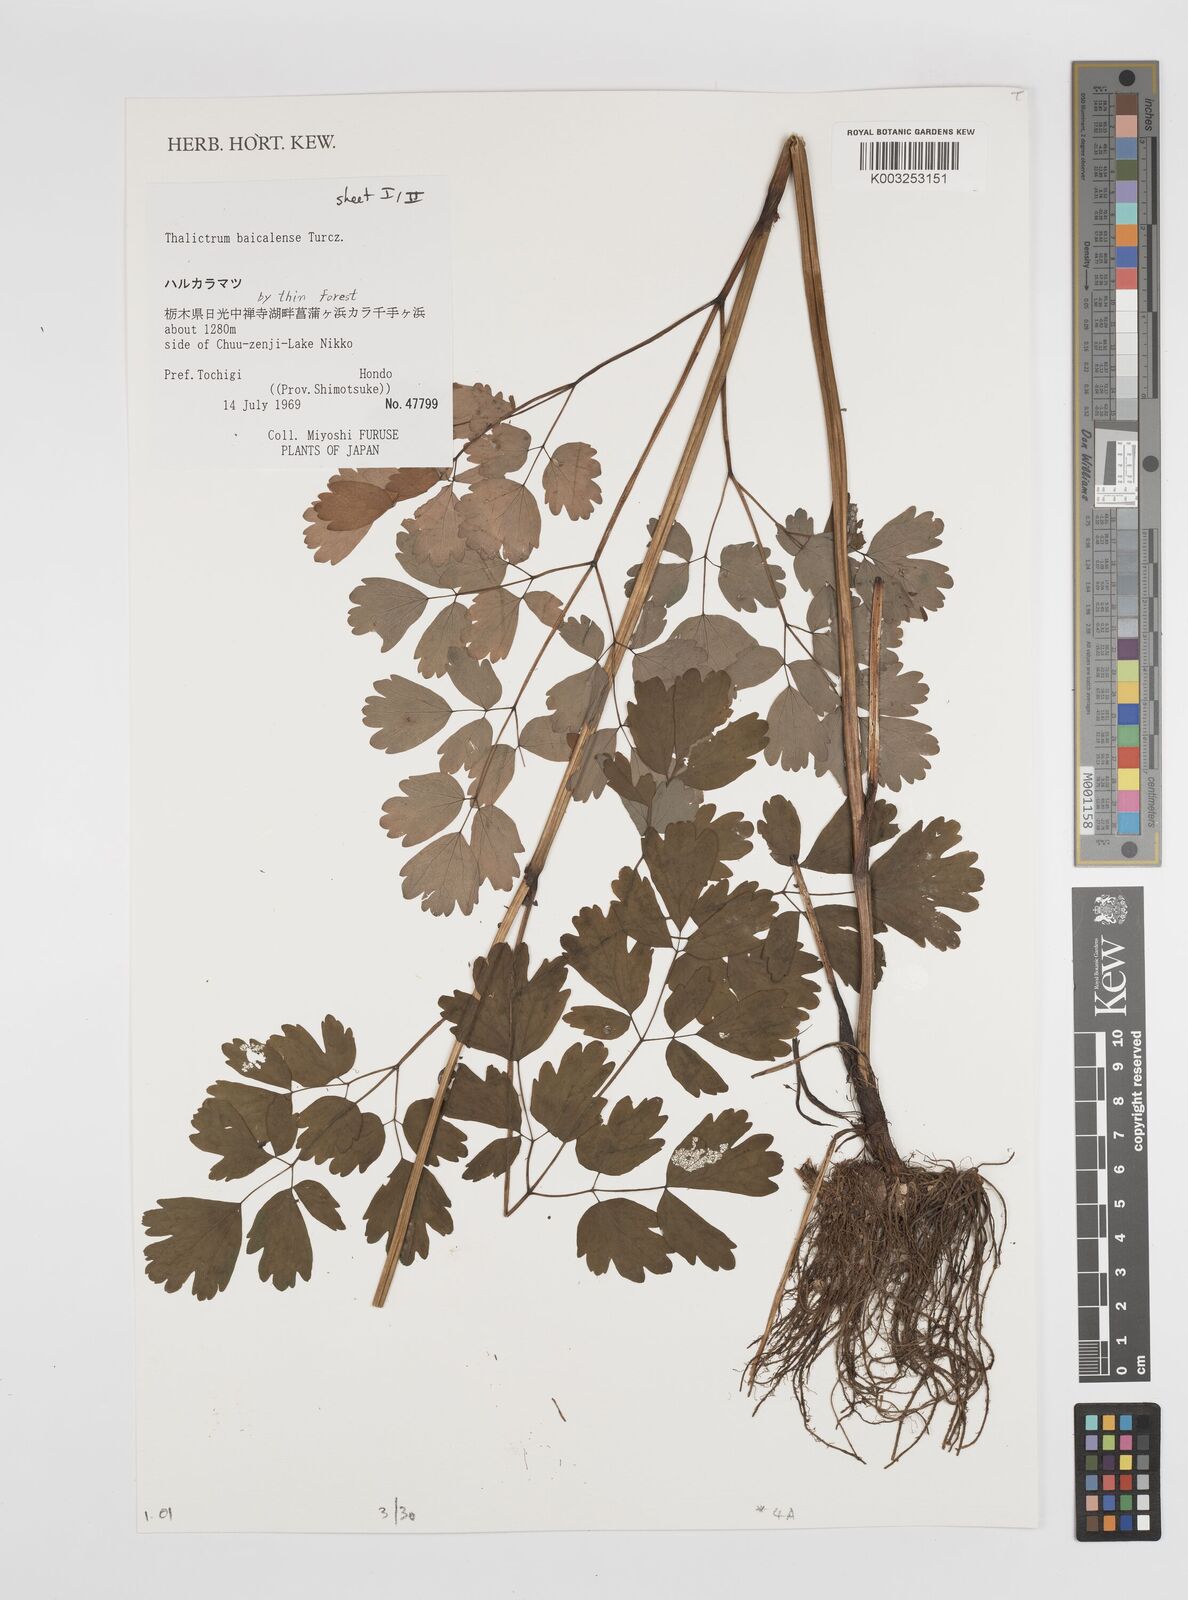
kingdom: Plantae
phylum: Tracheophyta
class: Magnoliopsida
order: Ranunculales
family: Ranunculaceae
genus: Thalictrum
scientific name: Thalictrum baicalense
